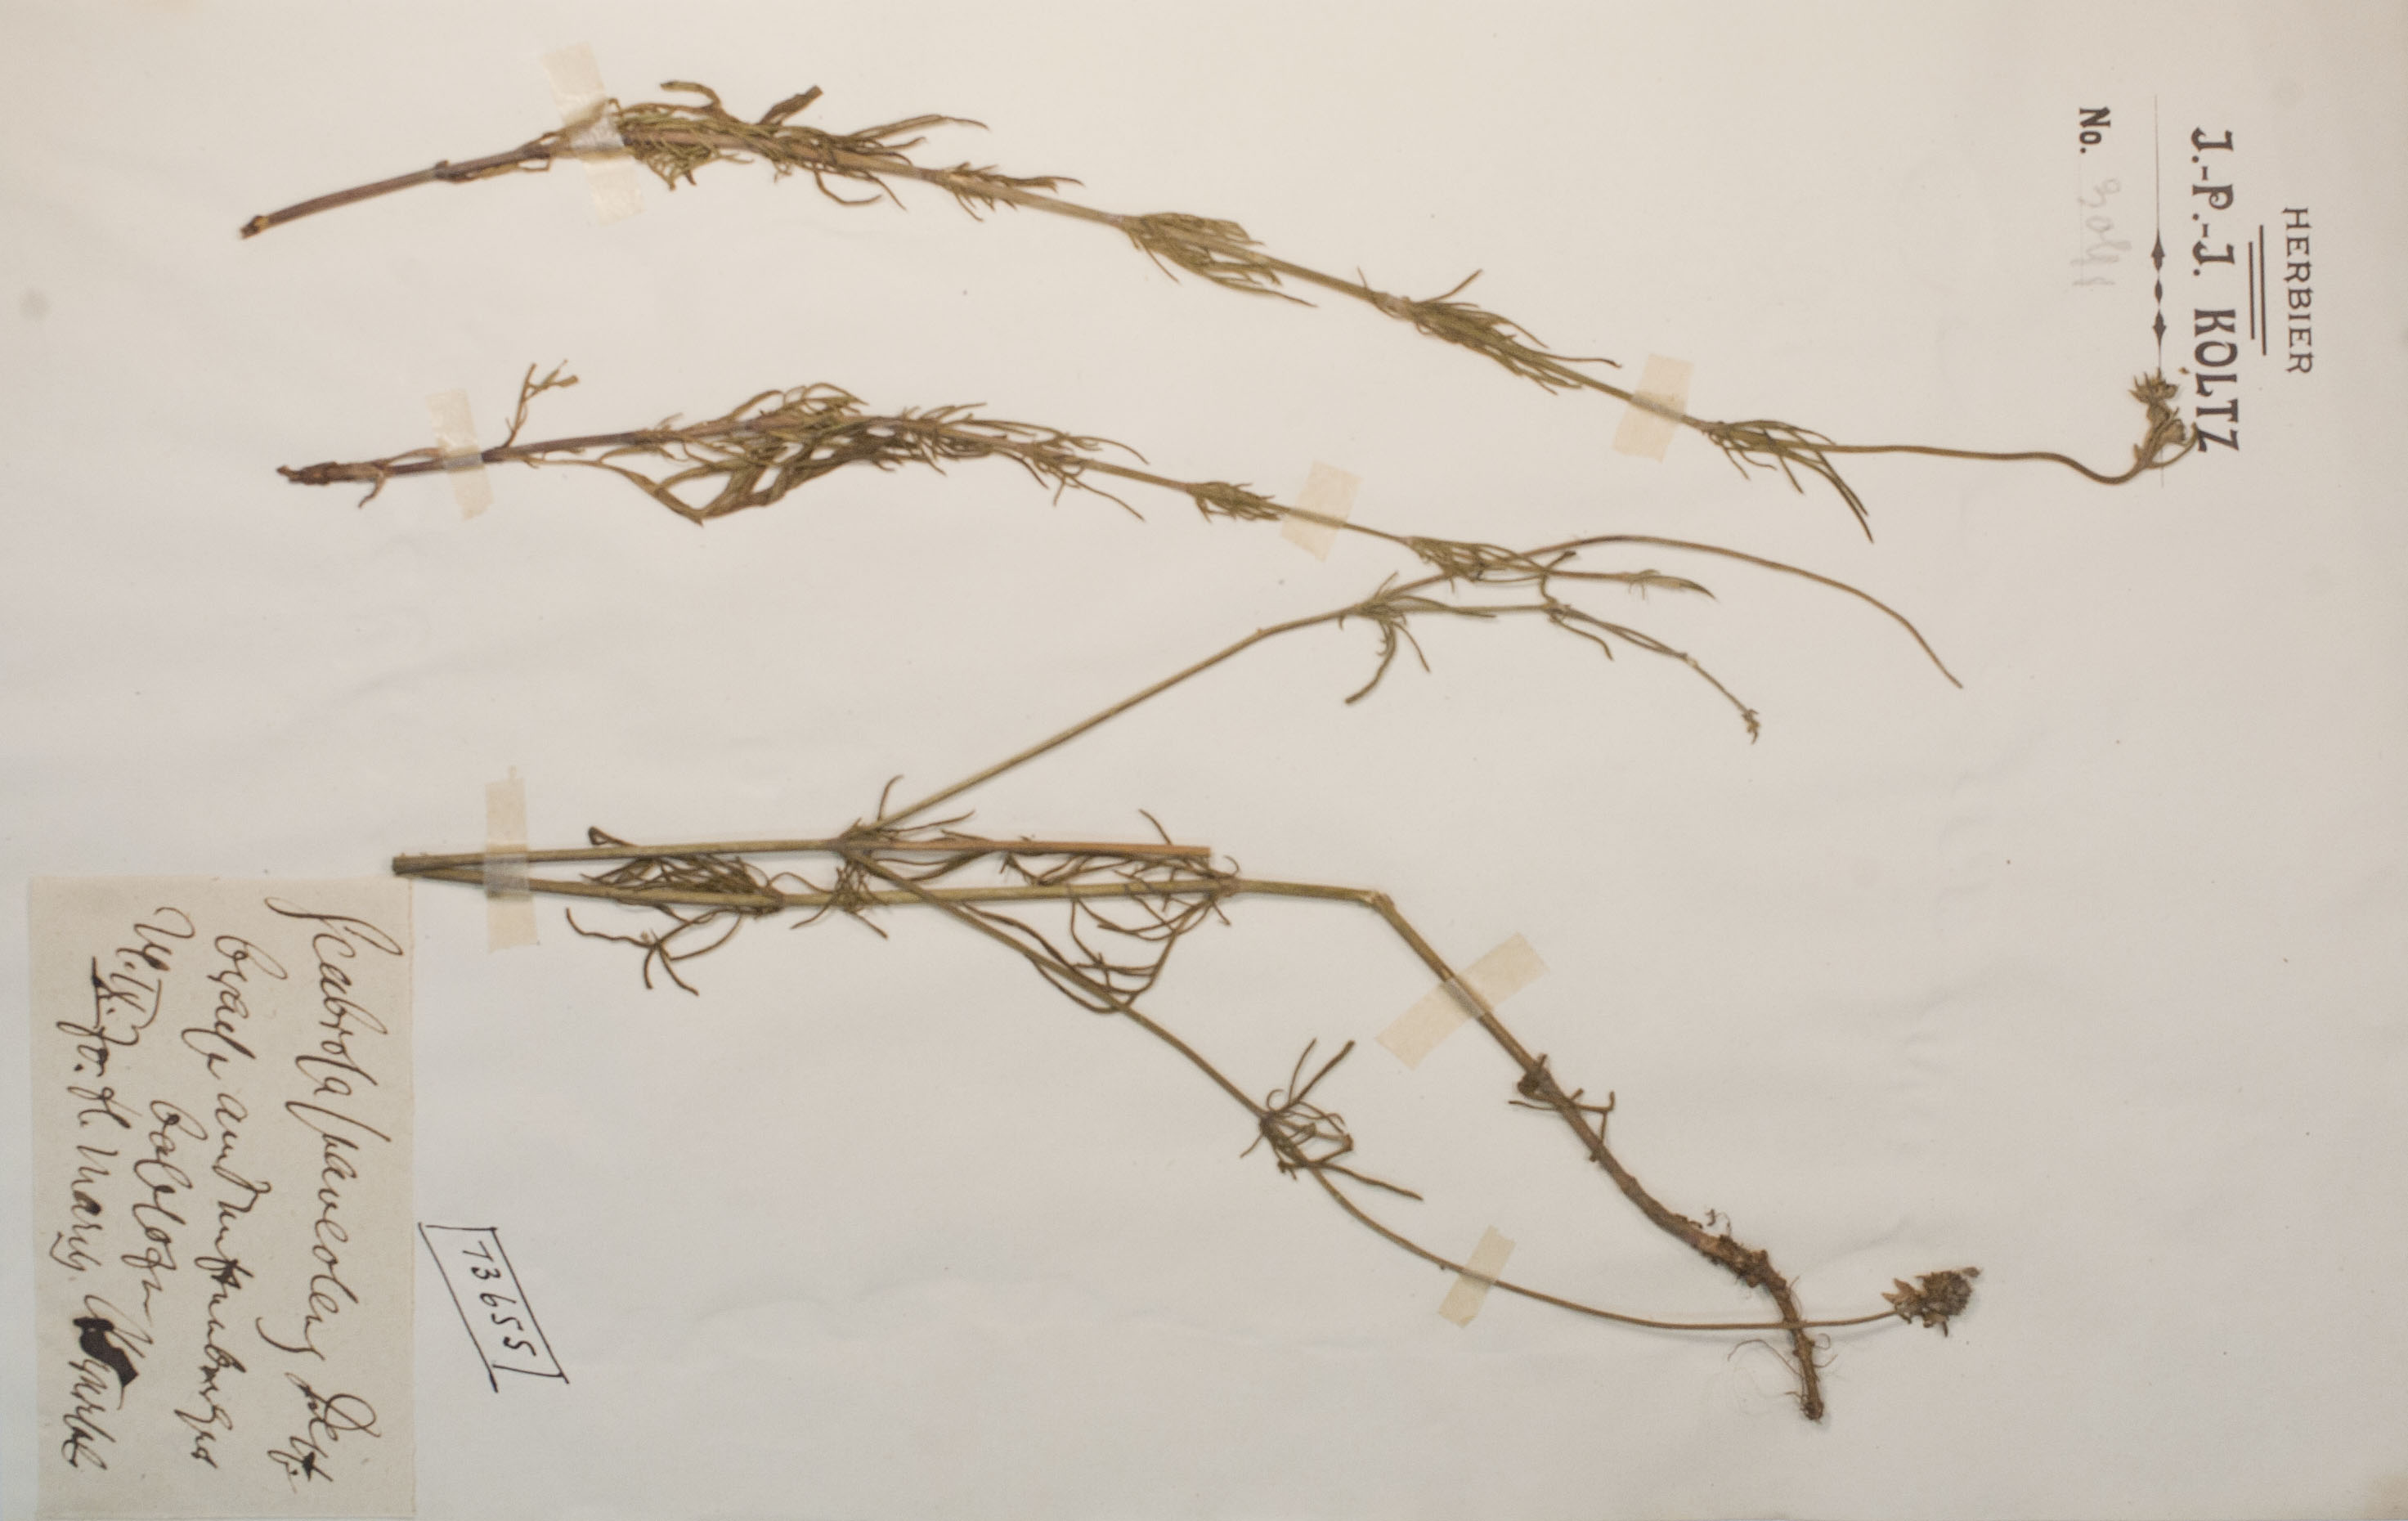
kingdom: Plantae
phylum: Tracheophyta
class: Magnoliopsida
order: Dipsacales
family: Caprifoliaceae
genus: Scabiosa
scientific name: Scabiosa canescens
